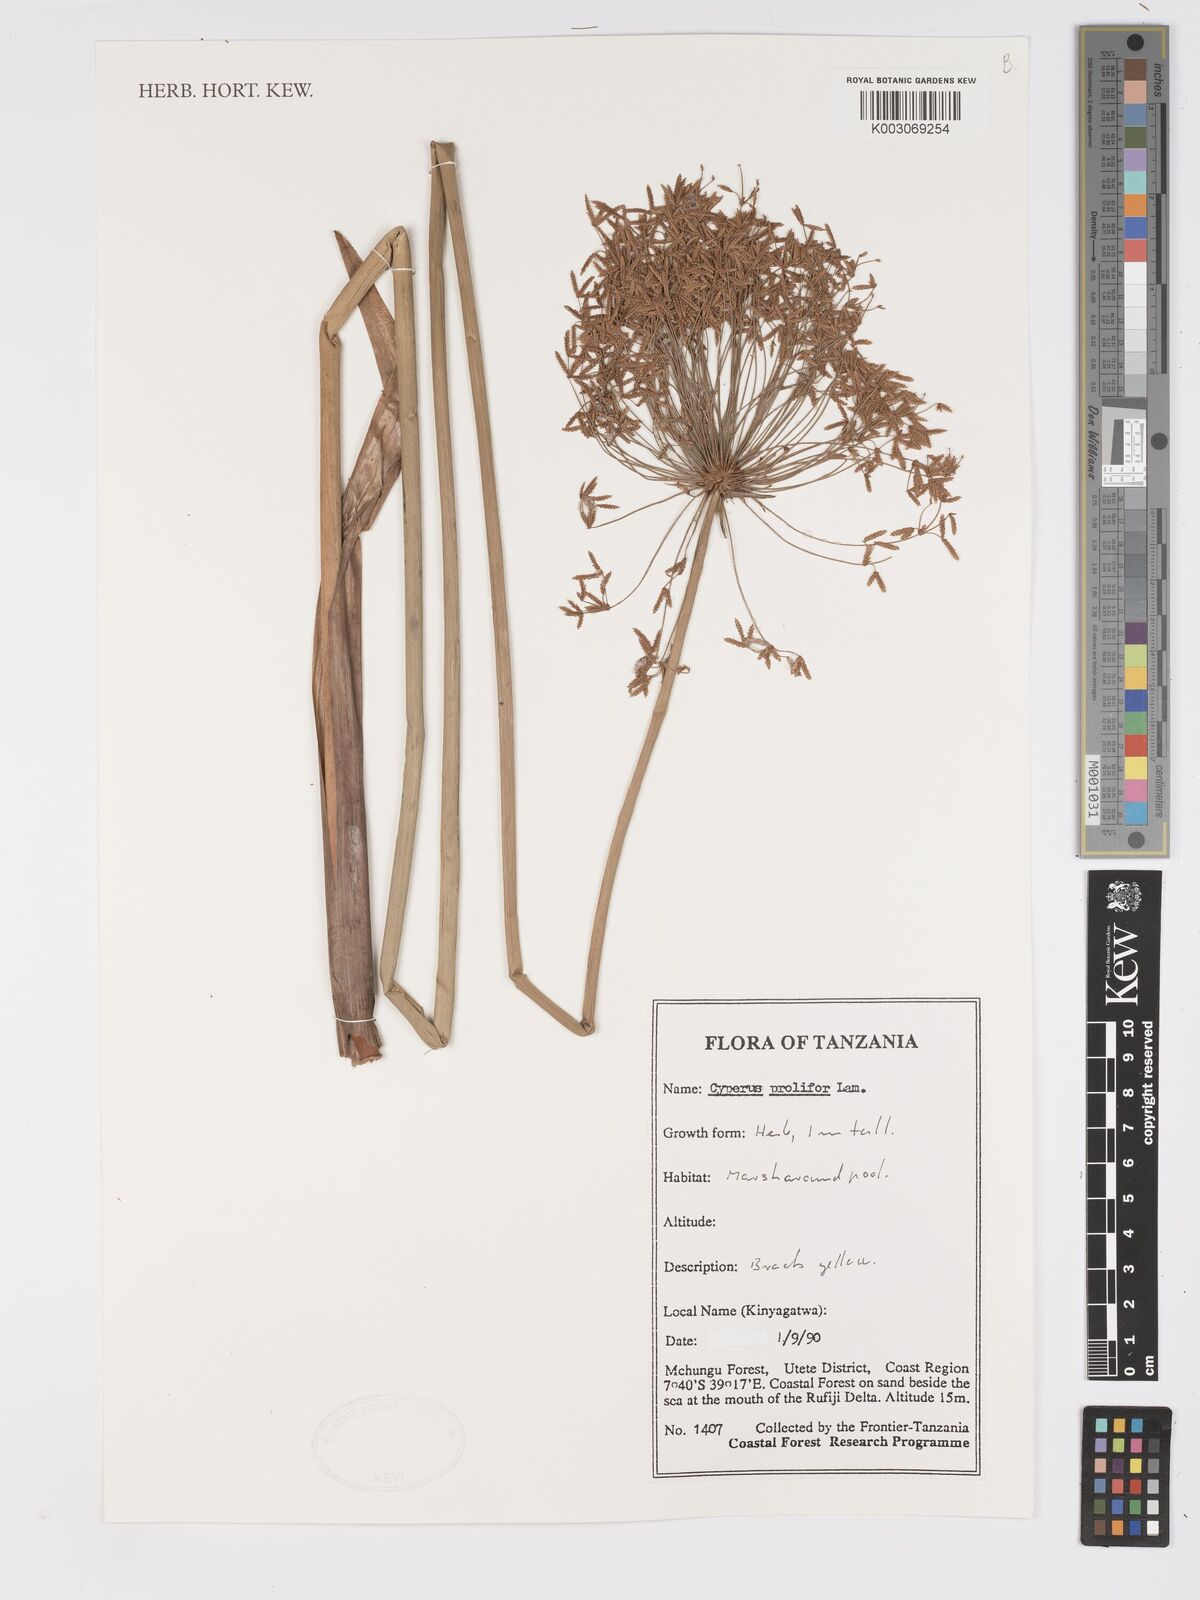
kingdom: Plantae
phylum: Tracheophyta
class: Liliopsida
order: Poales
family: Cyperaceae
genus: Cyperus
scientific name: Cyperus prolifer
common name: Miniature flatsedge
